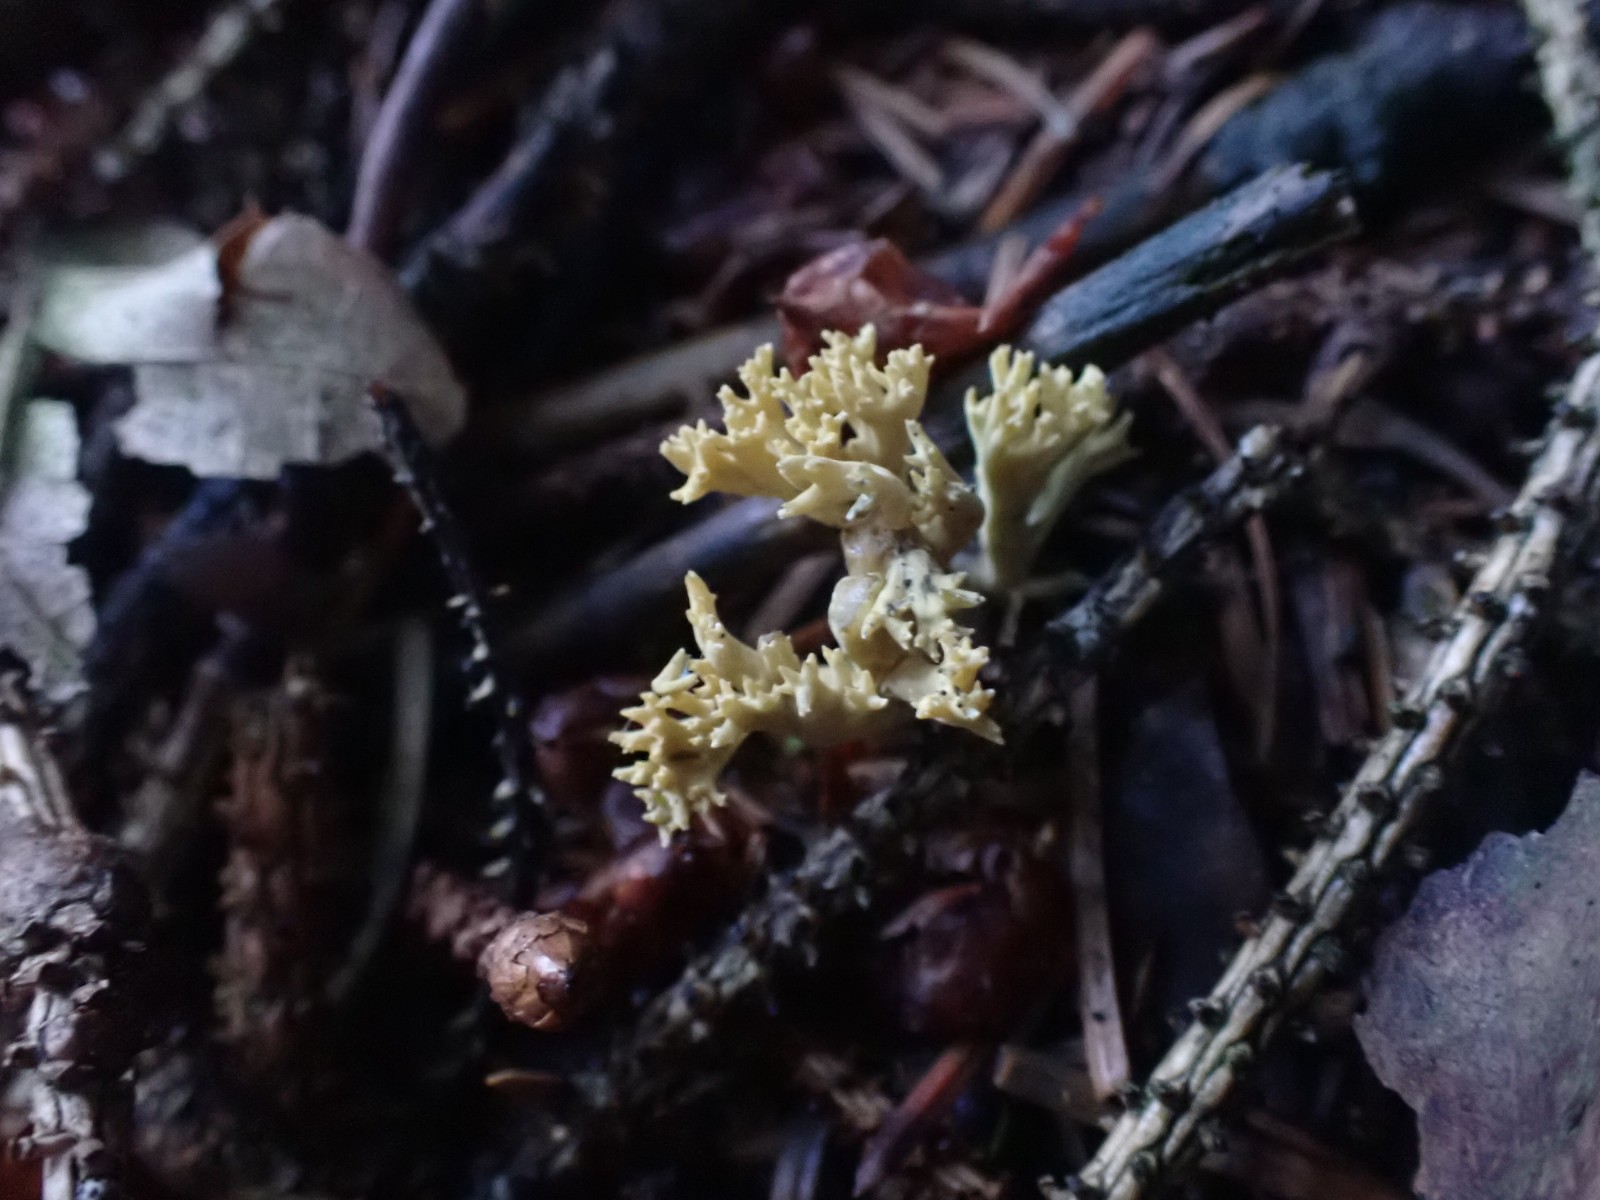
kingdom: Fungi
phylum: Basidiomycota
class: Agaricomycetes
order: Gomphales
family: Gomphaceae
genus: Phaeoclavulina
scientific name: Phaeoclavulina eumorpha
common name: gran-koralsvamp
